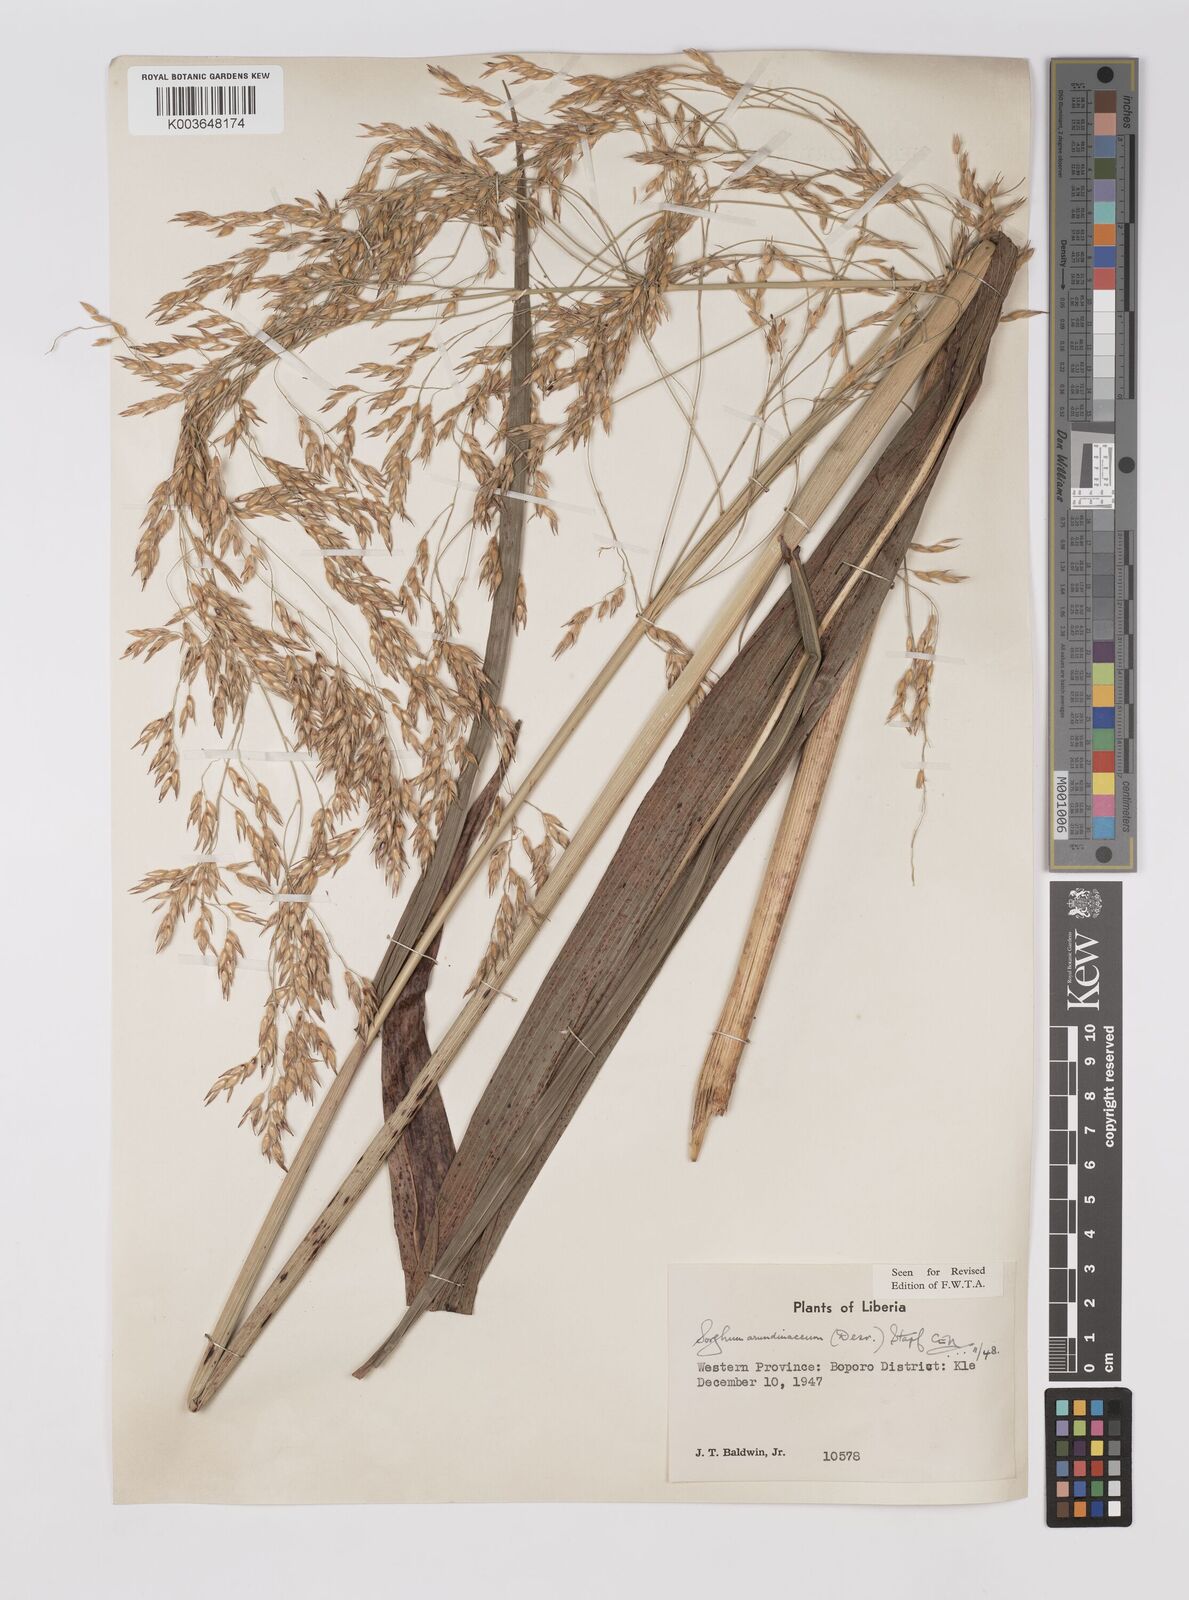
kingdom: Plantae
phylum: Tracheophyta
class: Liliopsida
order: Poales
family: Poaceae
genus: Sorghum
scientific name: Sorghum arundinaceum
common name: Sorghum
